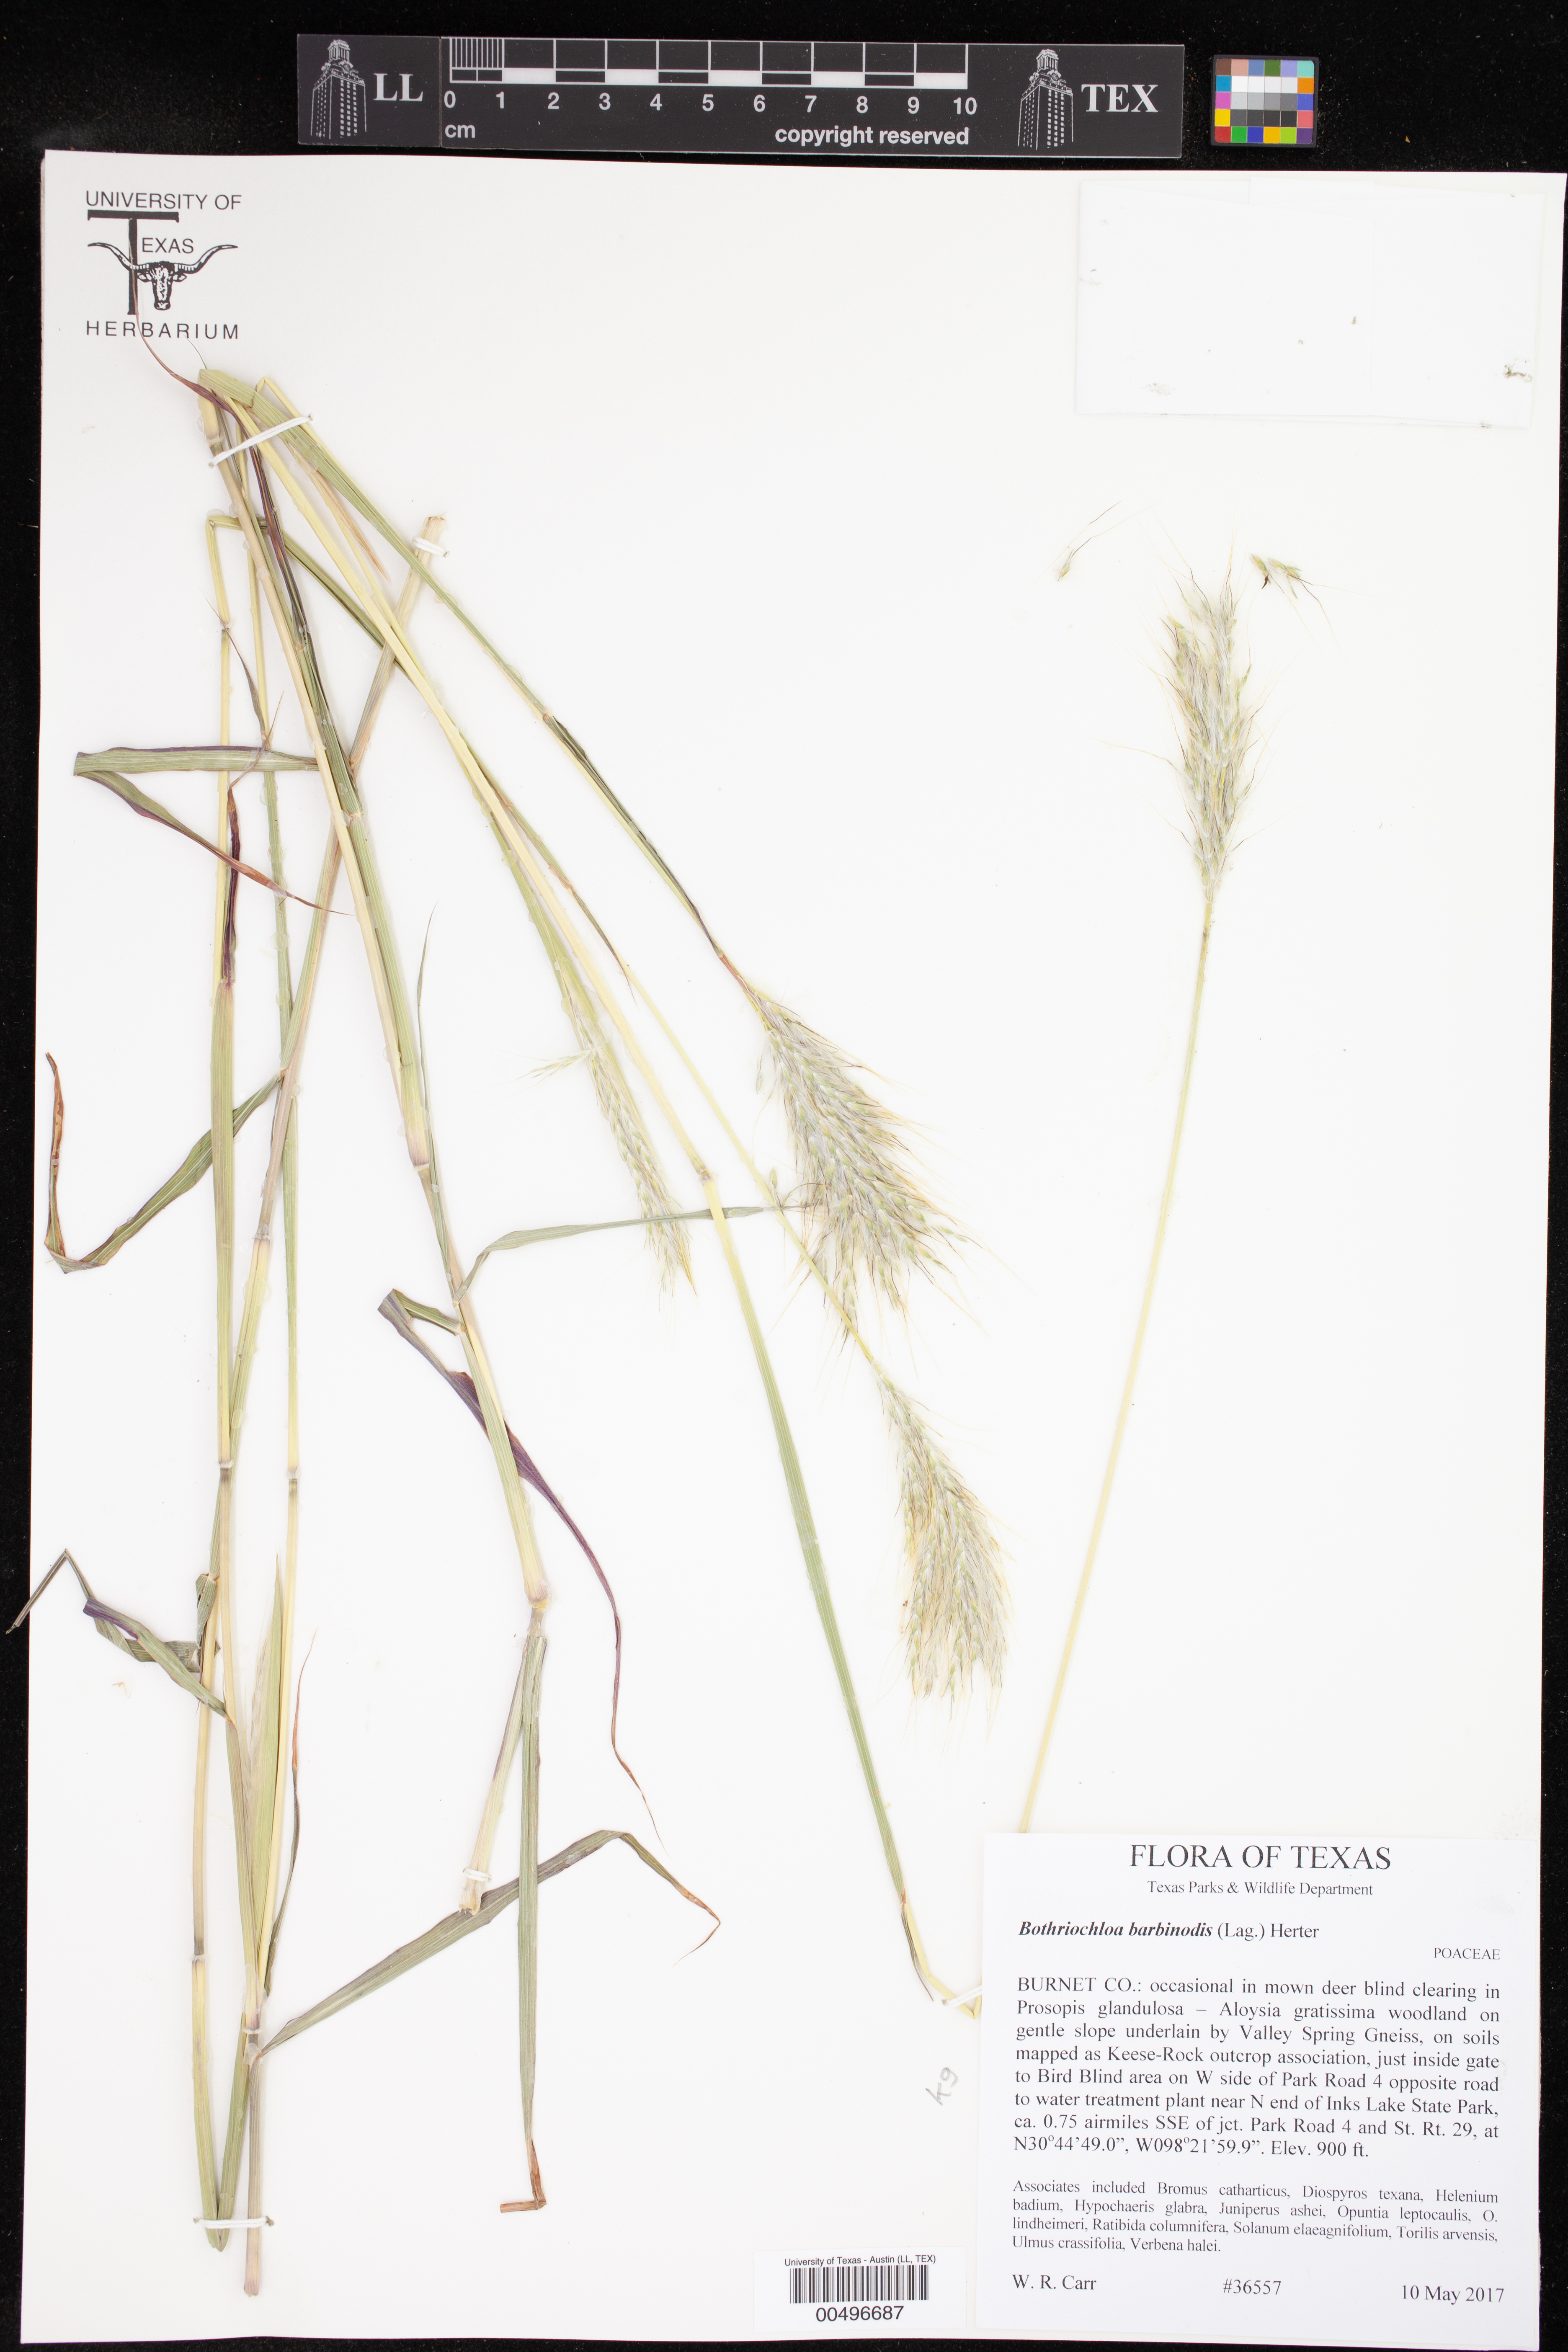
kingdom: Plantae
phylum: Tracheophyta
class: Liliopsida
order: Poales
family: Poaceae
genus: Bothriochloa
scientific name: Bothriochloa barbinodis
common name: Cane bluestem
